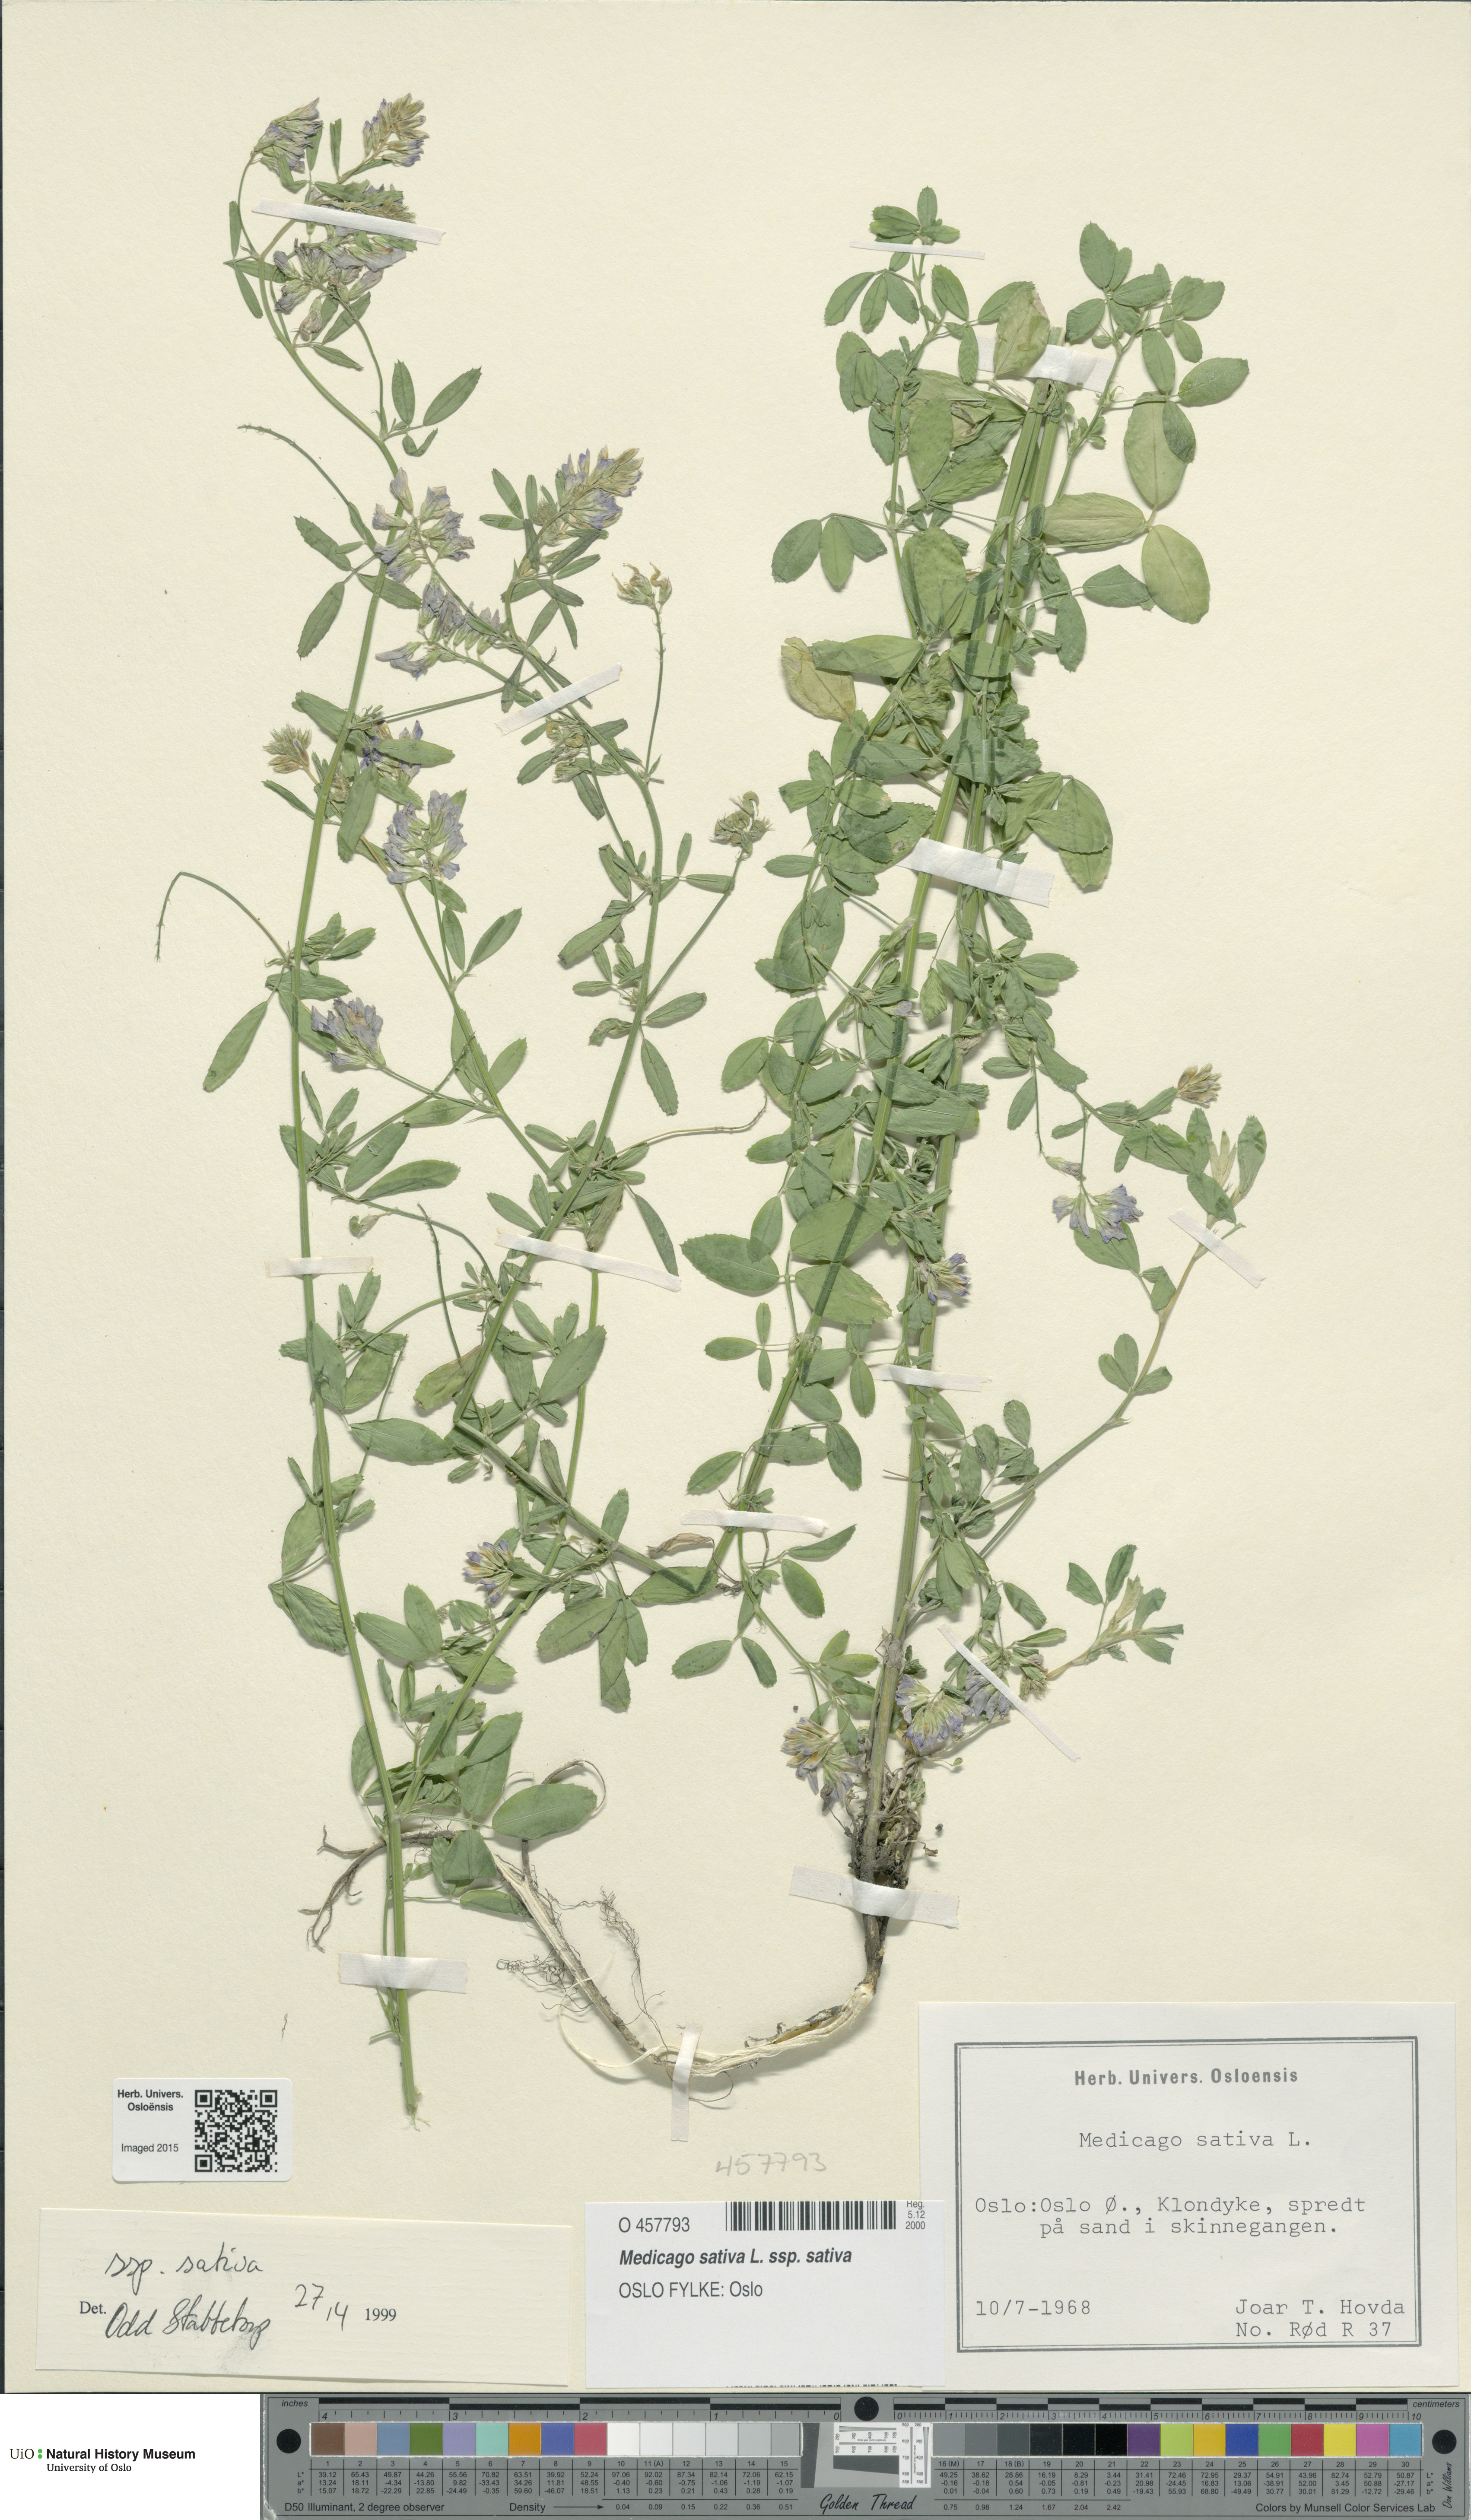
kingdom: Plantae
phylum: Tracheophyta
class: Magnoliopsida
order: Fabales
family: Fabaceae
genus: Medicago
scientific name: Medicago sativa
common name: Alfalfa
